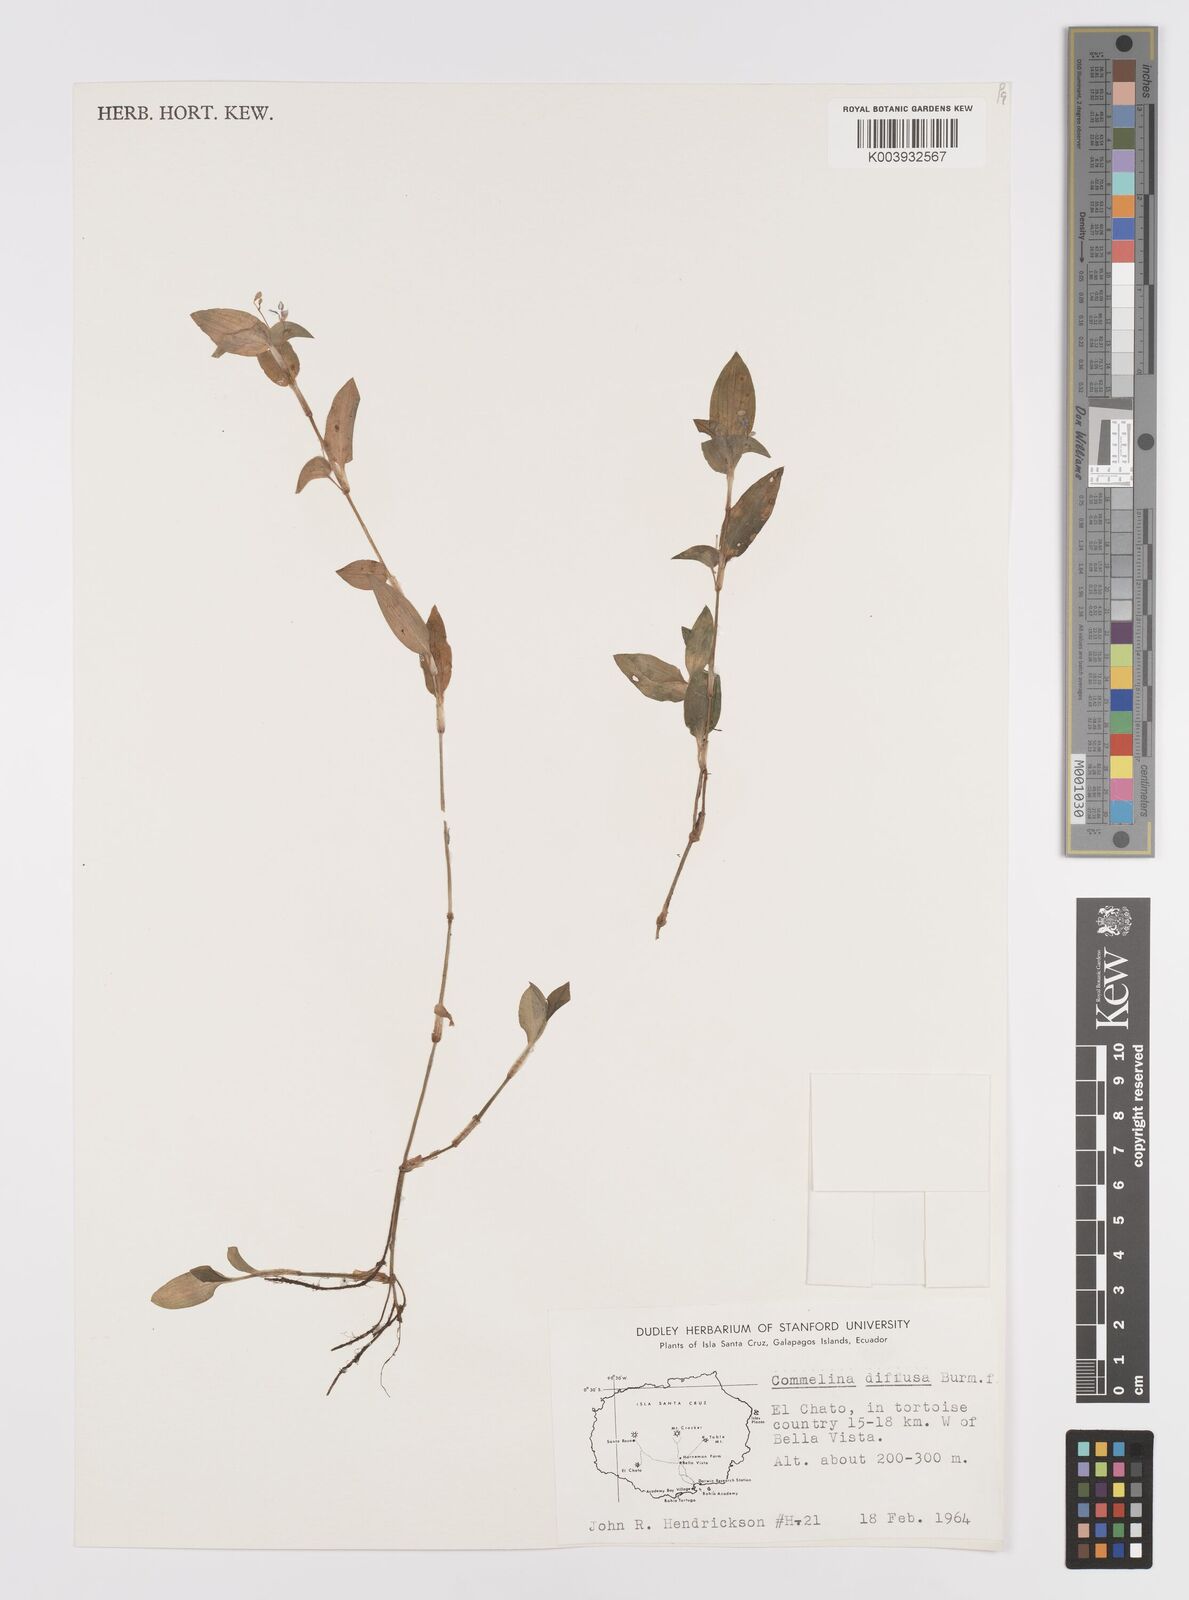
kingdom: Plantae
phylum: Tracheophyta
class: Liliopsida
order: Commelinales
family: Commelinaceae
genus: Commelina
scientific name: Commelina diffusa
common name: Climbing dayflower
